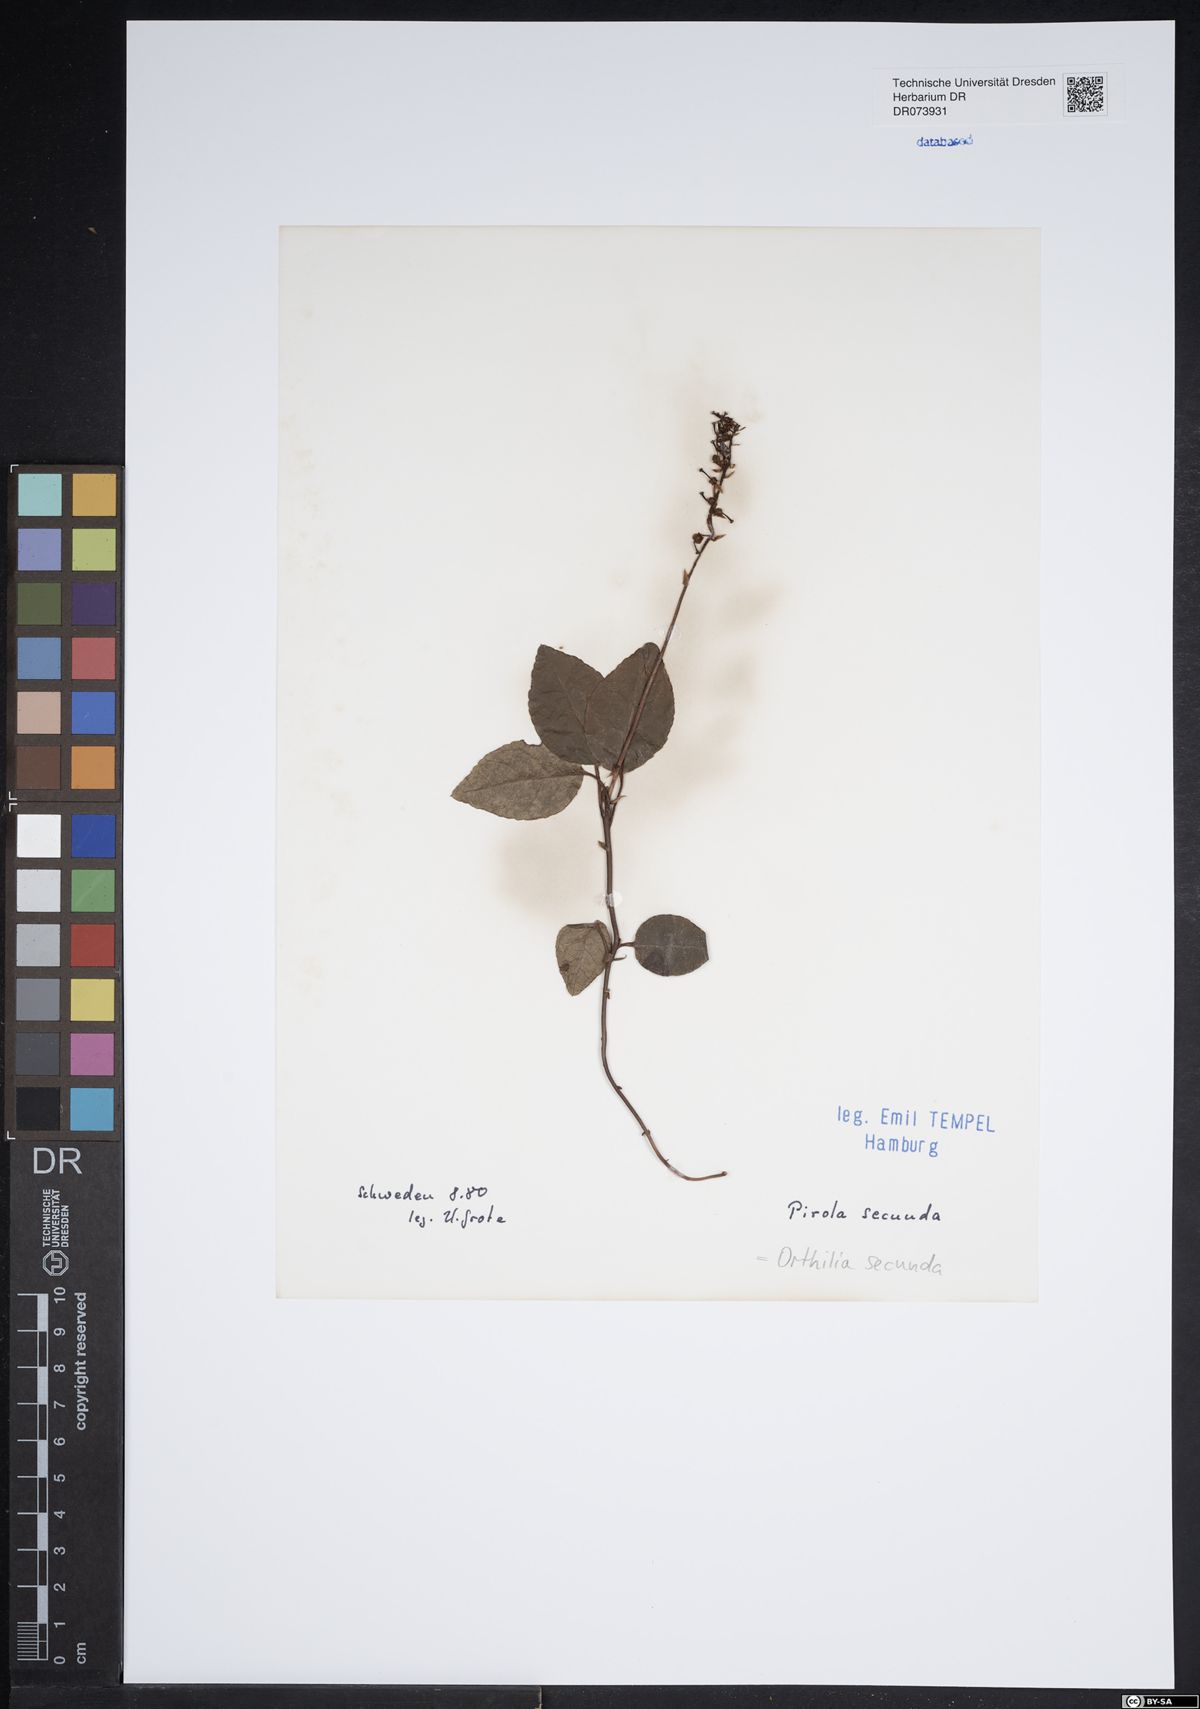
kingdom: Plantae
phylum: Tracheophyta
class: Magnoliopsida
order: Ericales
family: Ericaceae
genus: Orthilia
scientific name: Orthilia secunda
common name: One-sided orthilia
